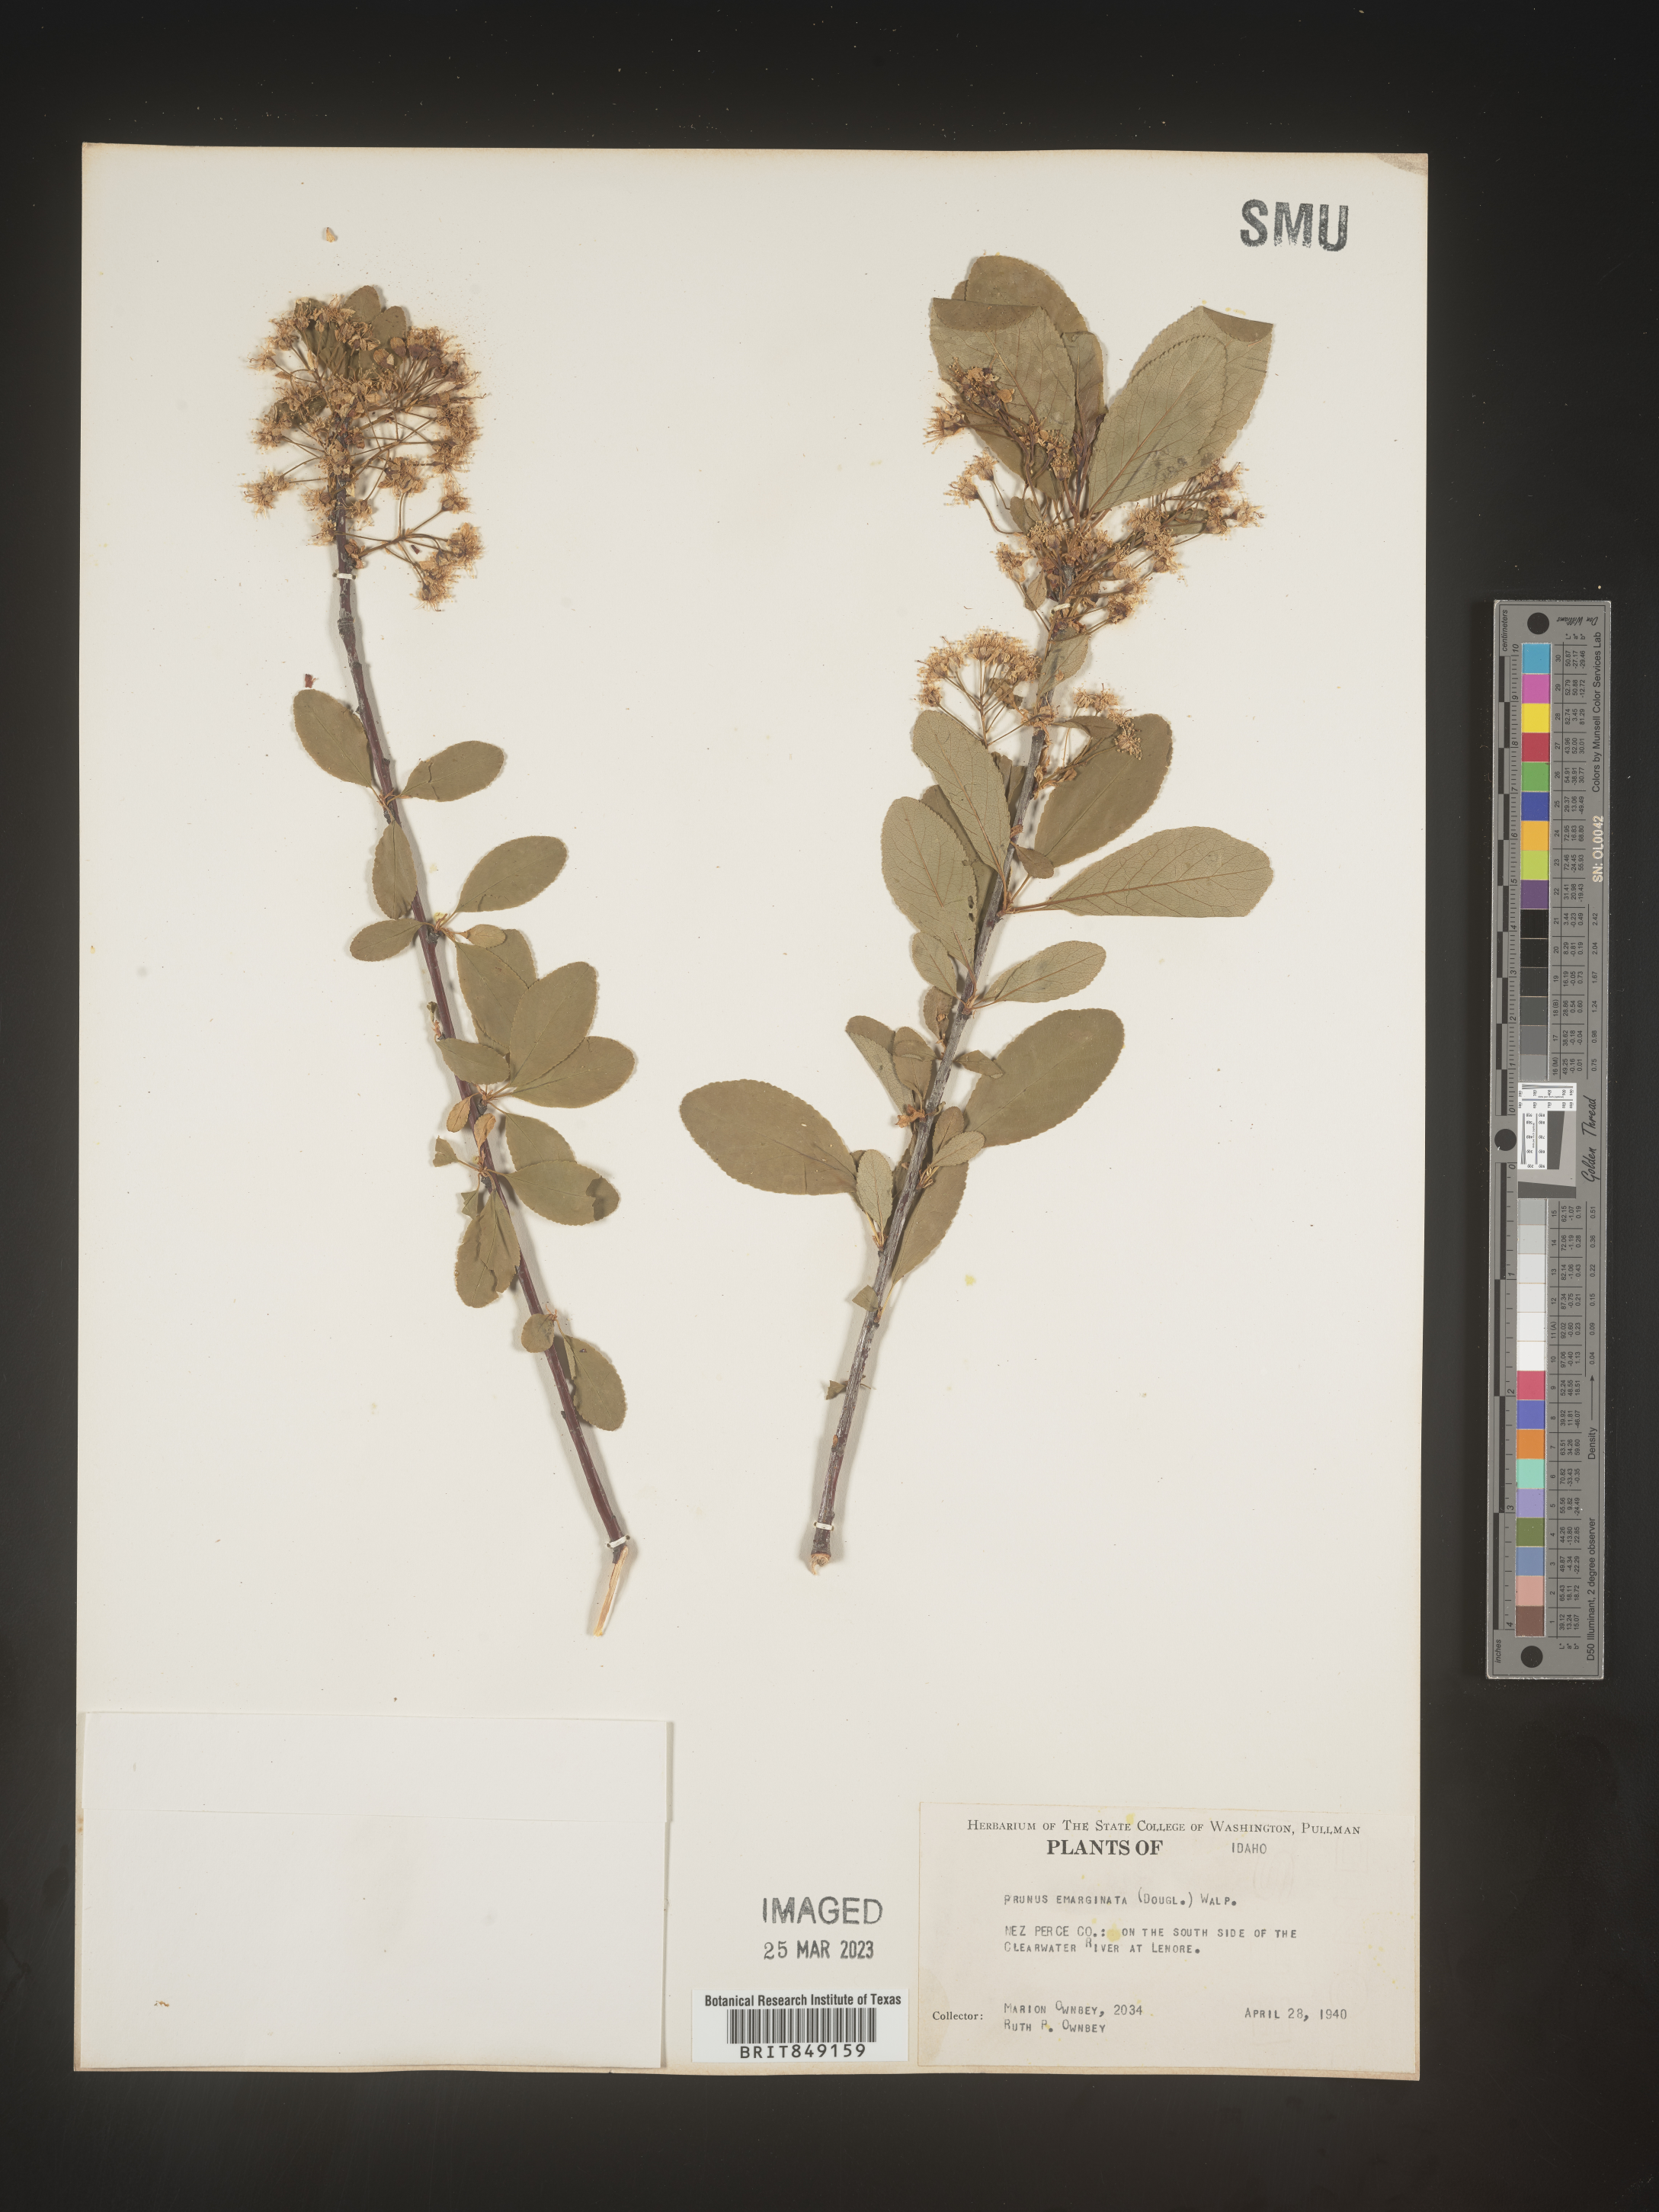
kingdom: Plantae
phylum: Tracheophyta
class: Magnoliopsida
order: Rosales
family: Rosaceae
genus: Prunus
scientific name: Prunus emarginata
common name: Bitter cherry
